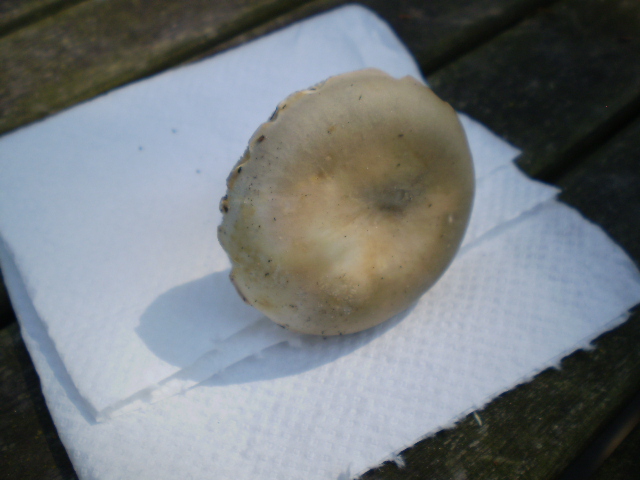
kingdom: Fungi
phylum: Basidiomycota
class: Agaricomycetes
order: Russulales
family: Russulaceae
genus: Russula
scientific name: Russula vesca
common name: spiselig skørhat
